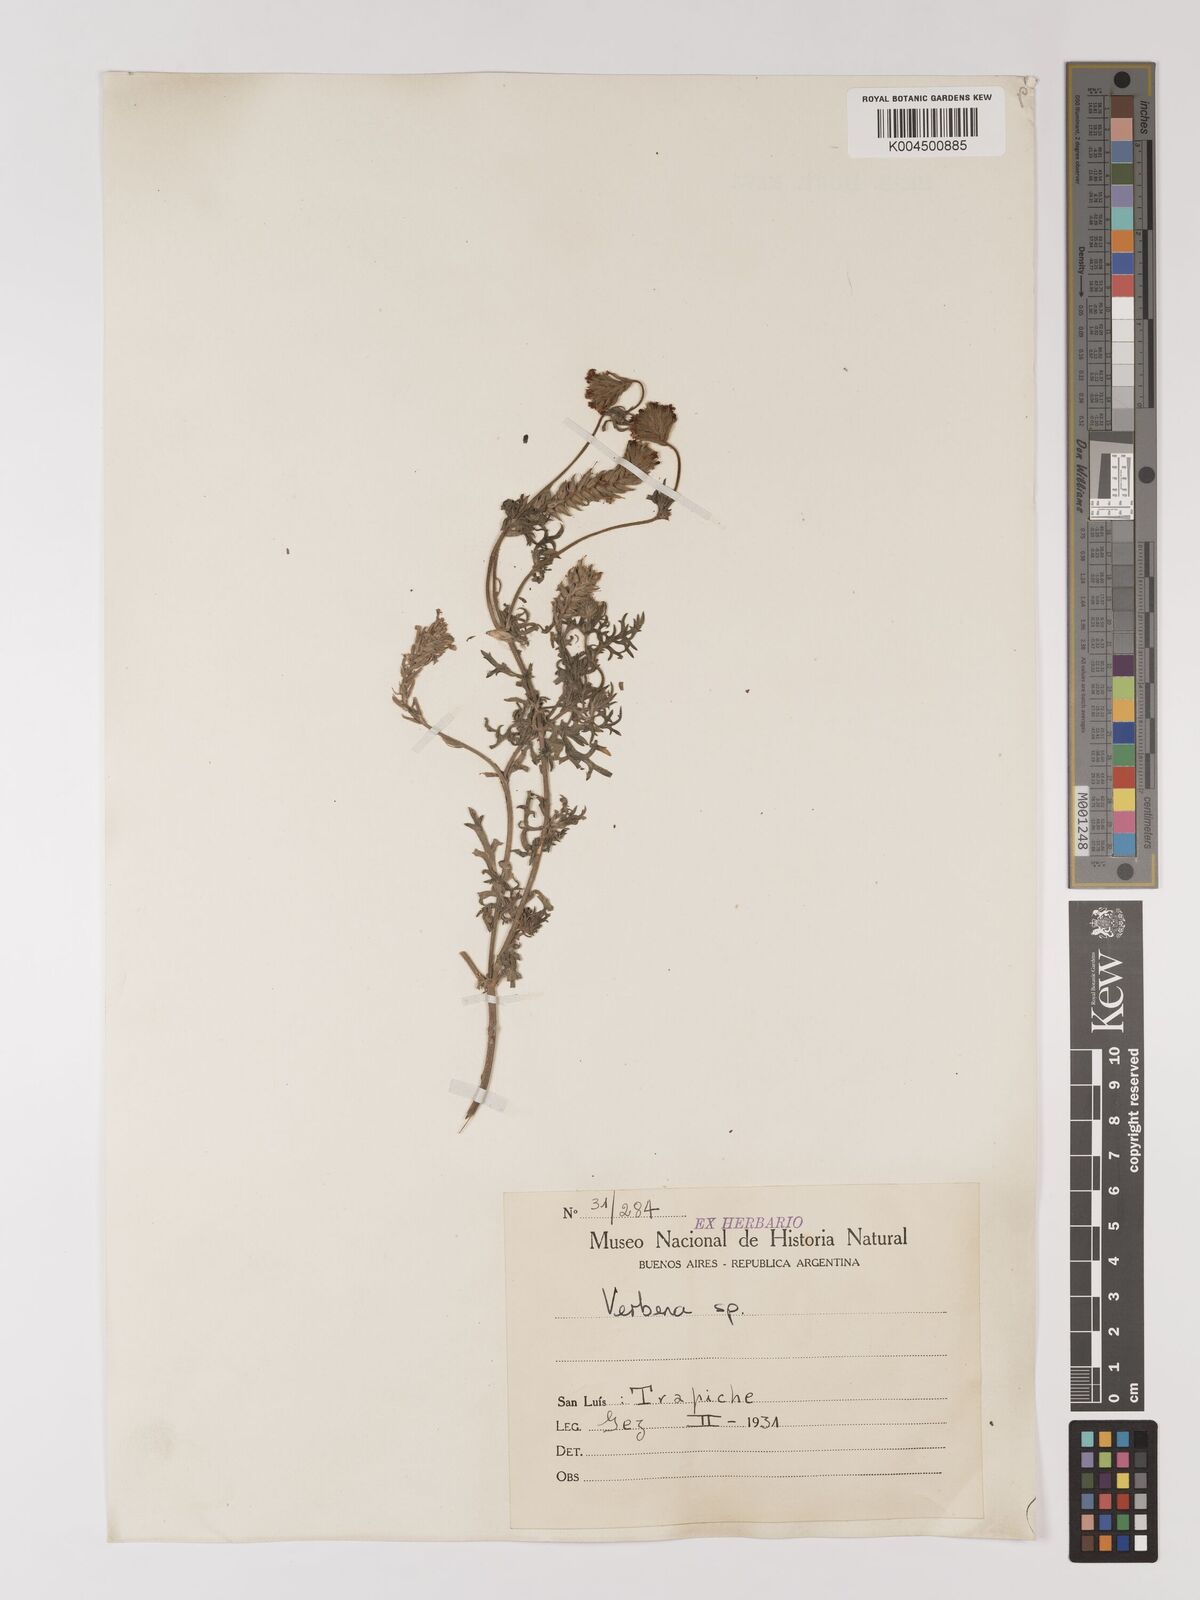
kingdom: Plantae
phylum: Tracheophyta
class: Magnoliopsida
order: Lamiales
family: Verbenaceae
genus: Verbena
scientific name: Verbena
